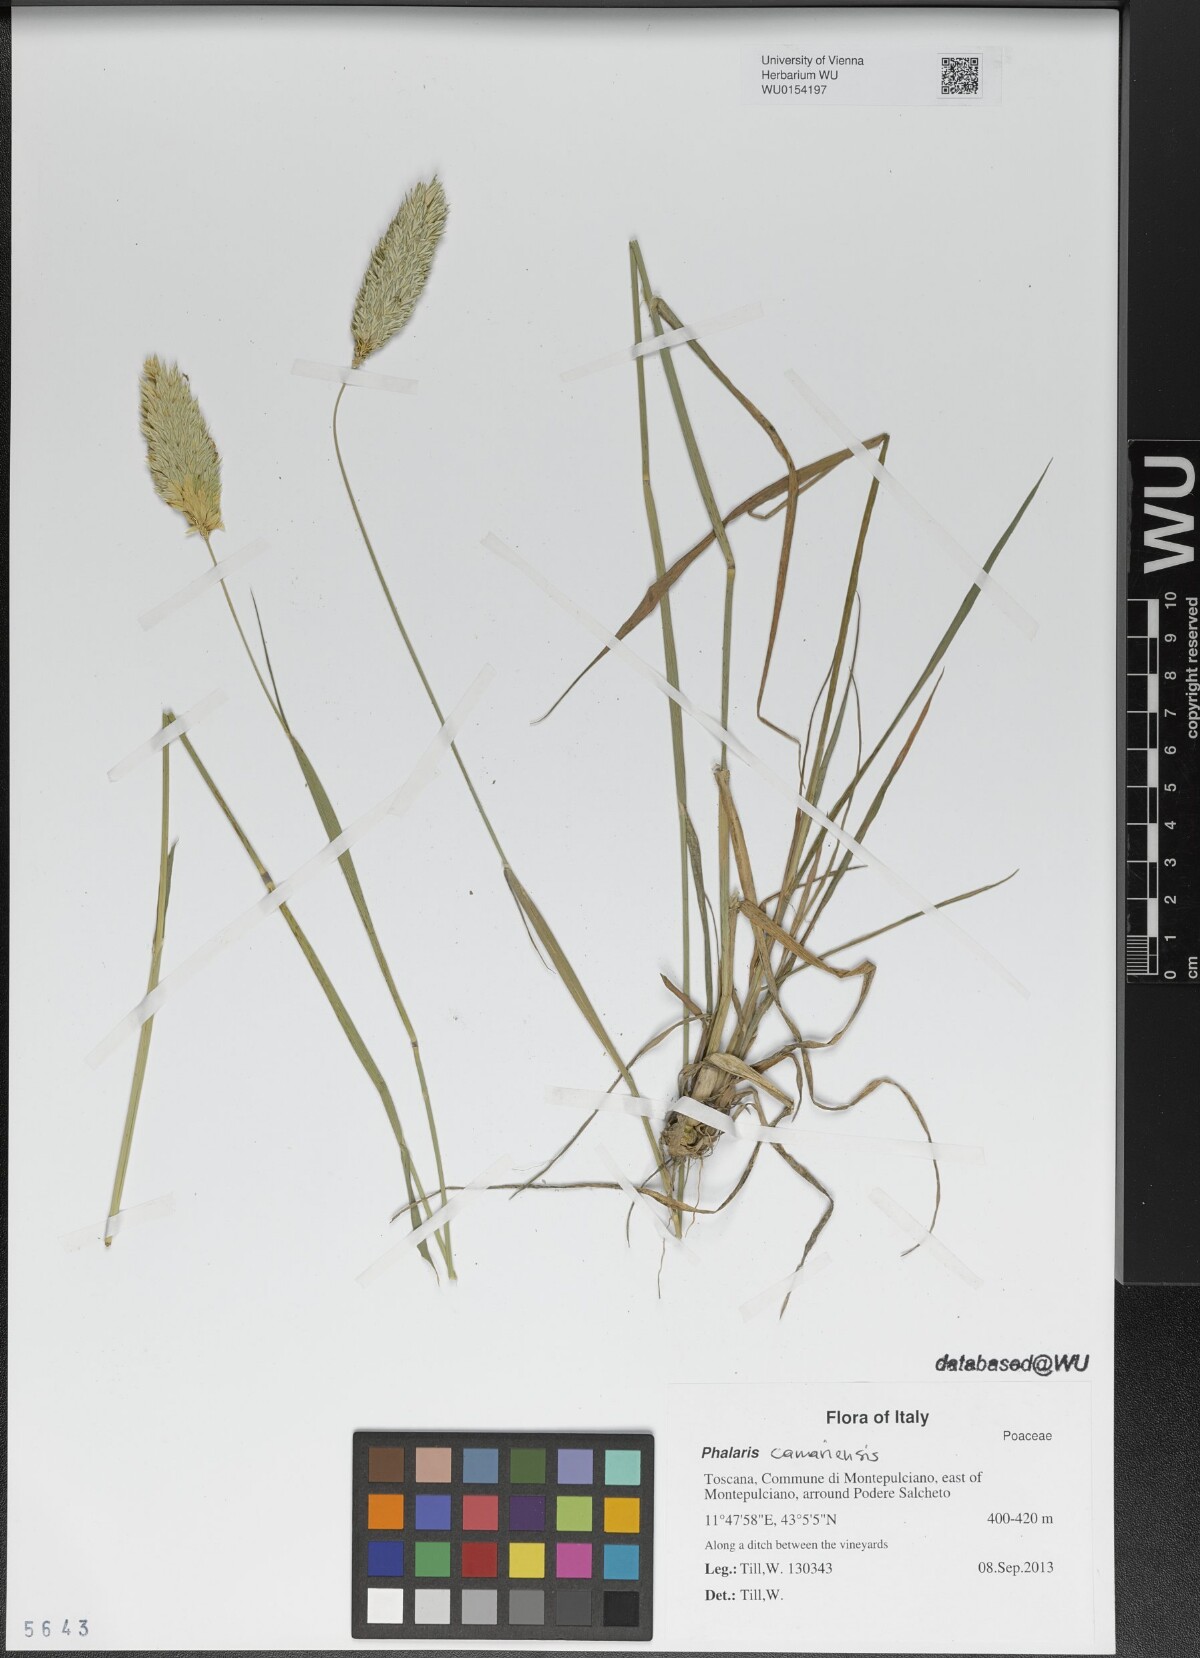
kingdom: Plantae
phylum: Tracheophyta
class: Liliopsida
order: Poales
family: Poaceae
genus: Phalaris
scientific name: Phalaris canariensis
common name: Annual canarygrass
